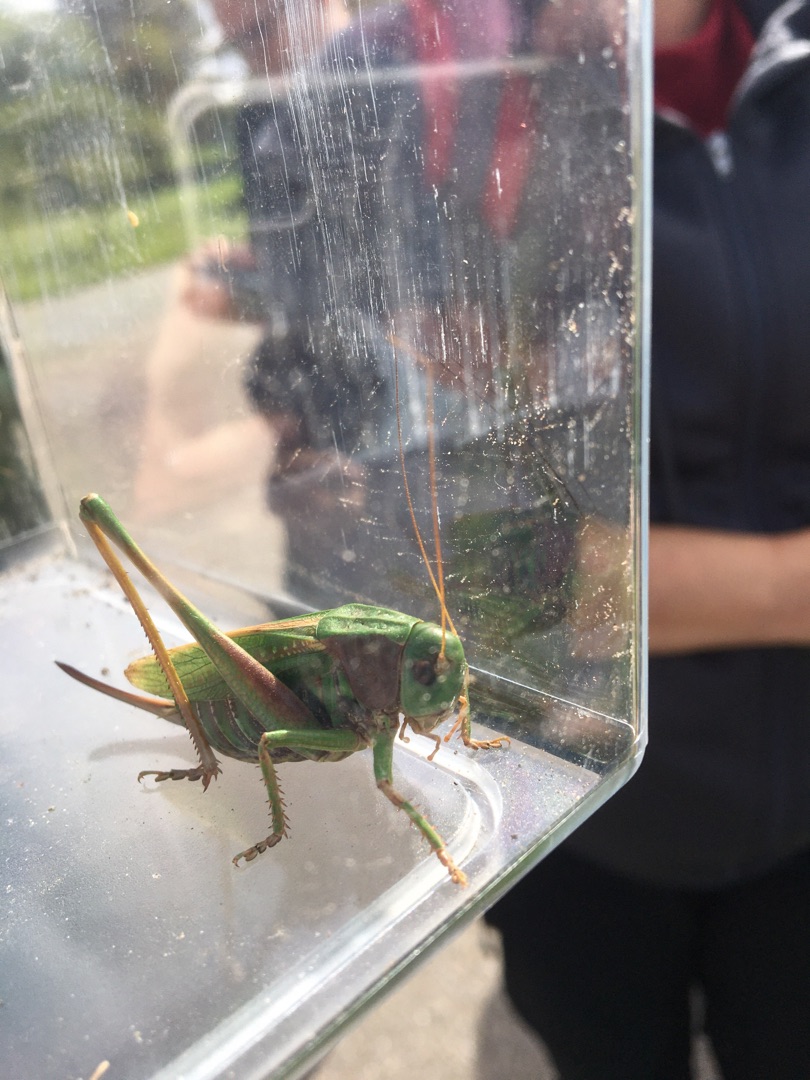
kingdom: Animalia
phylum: Arthropoda
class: Insecta
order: Orthoptera
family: Tettigoniidae
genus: Decticus
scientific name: Decticus verrucivorus
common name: Vortebider
